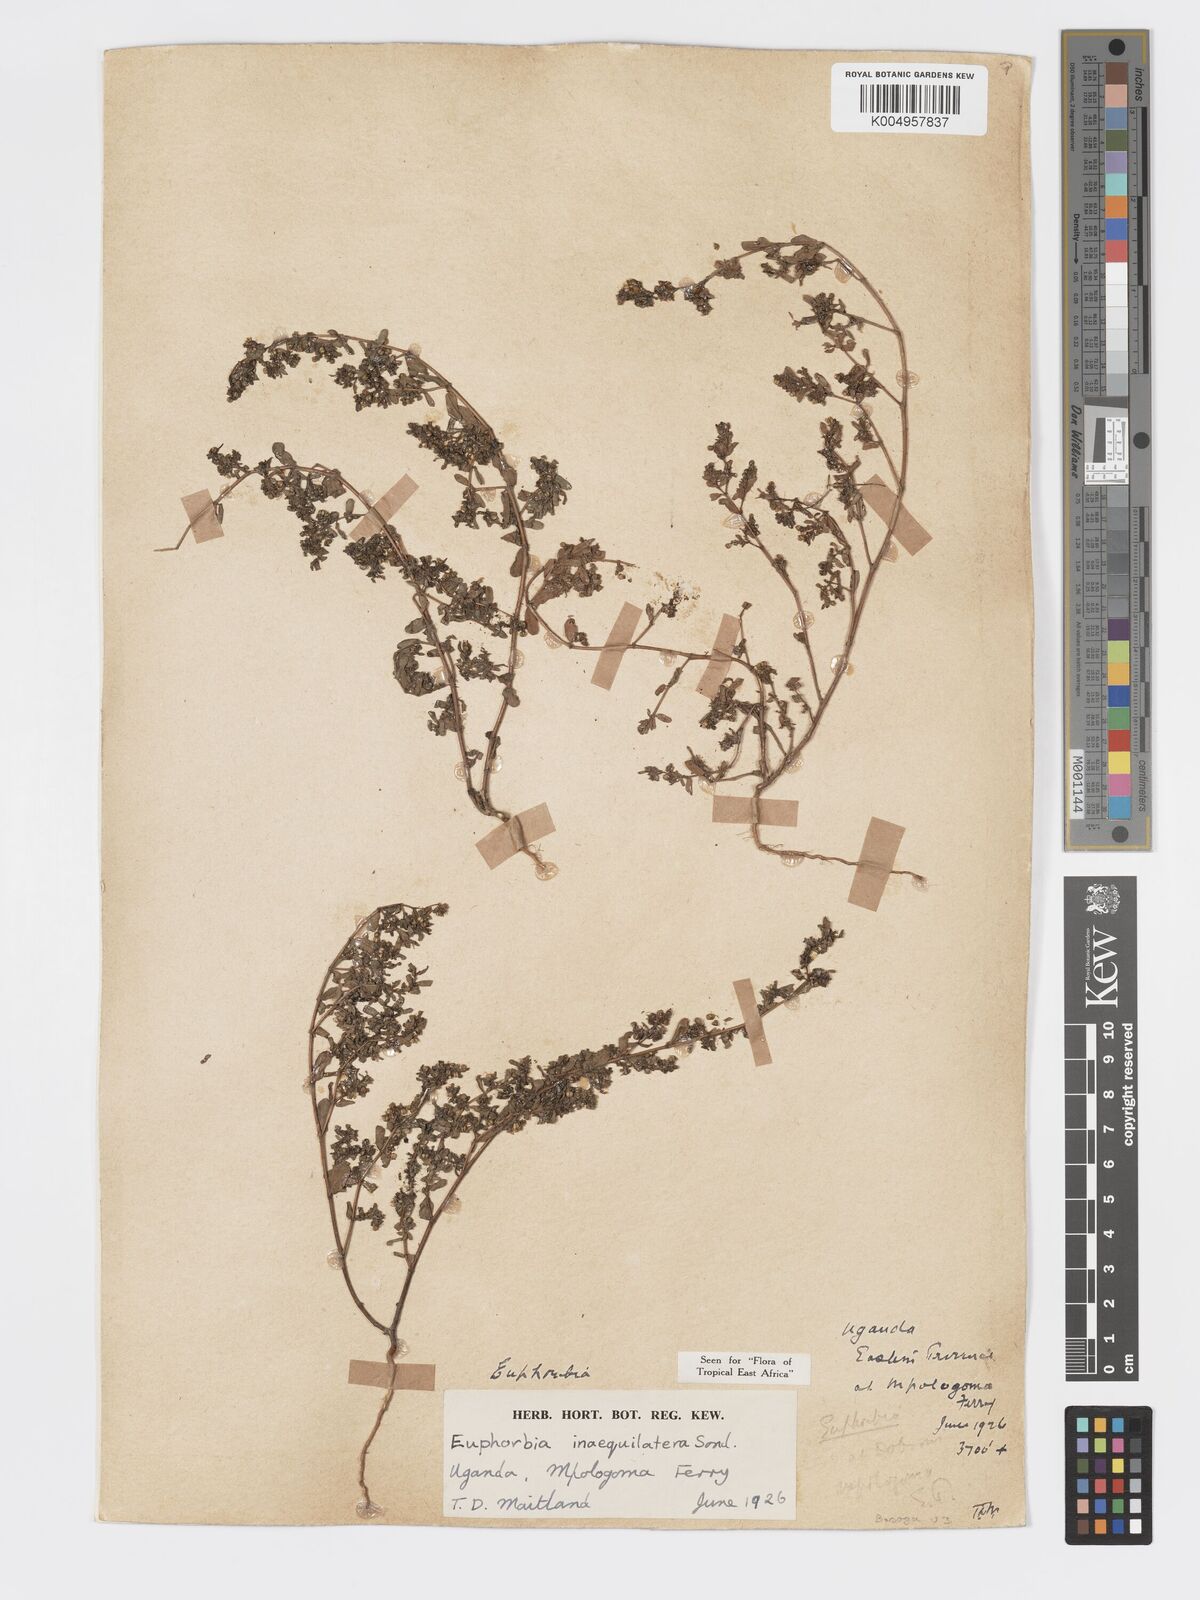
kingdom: Plantae
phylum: Tracheophyta
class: Magnoliopsida
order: Malpighiales
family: Euphorbiaceae
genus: Euphorbia
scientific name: Euphorbia inaequilatera
